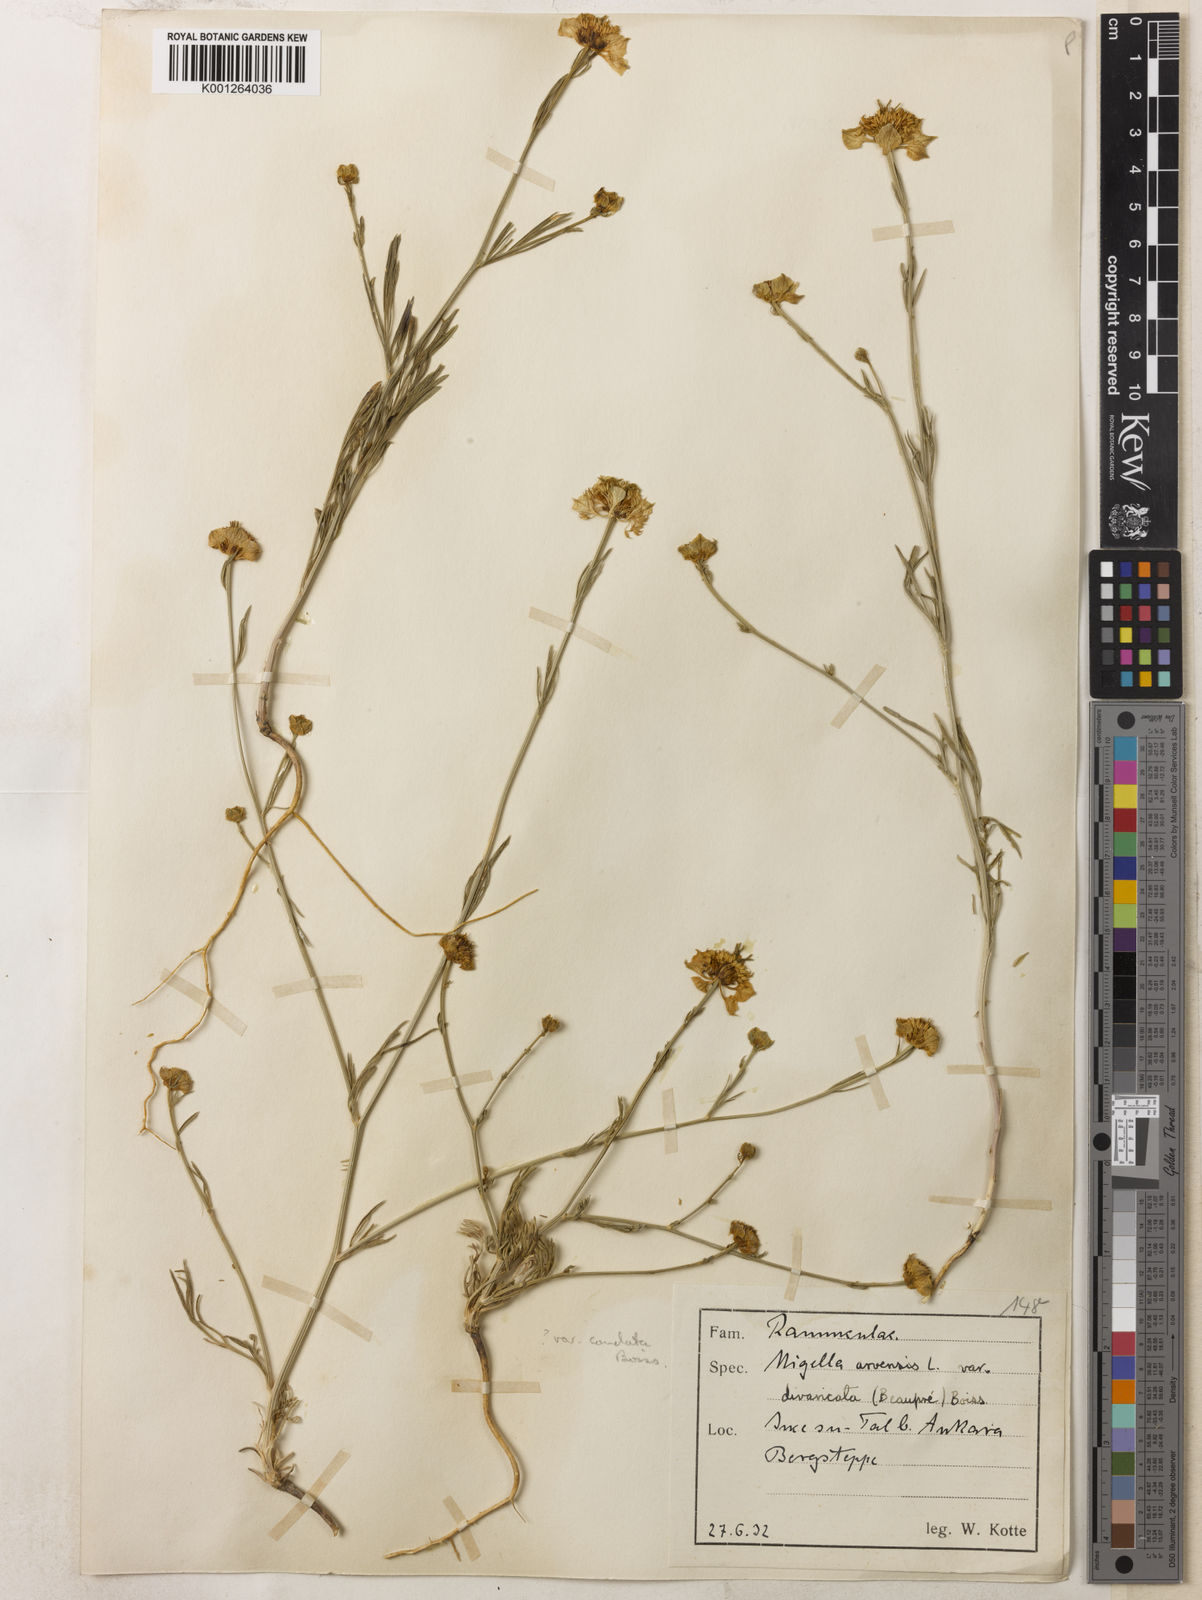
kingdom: Plantae
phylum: Tracheophyta
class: Magnoliopsida
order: Ranunculales
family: Ranunculaceae
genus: Nigella
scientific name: Nigella arvensis
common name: Wild fennel-flower
